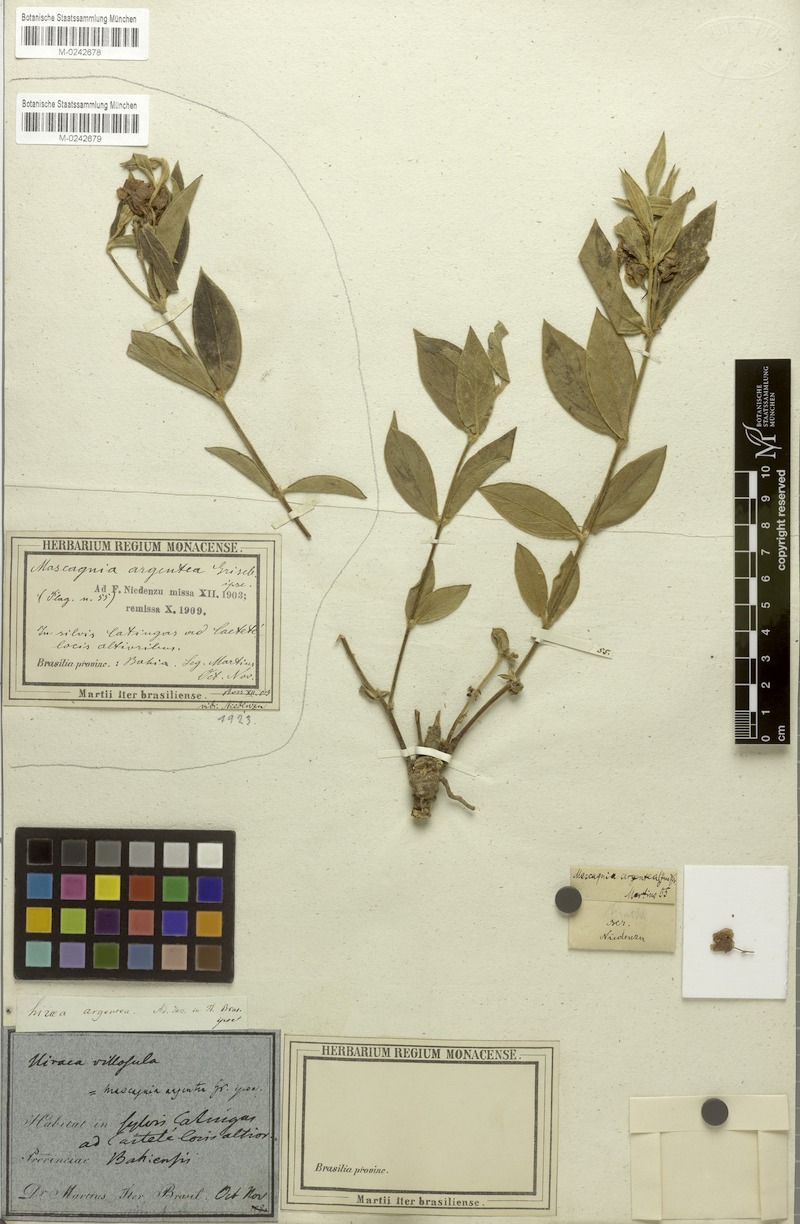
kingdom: Plantae
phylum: Tracheophyta
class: Magnoliopsida
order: Malpighiales
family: Malpighiaceae
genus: Glicophyllum
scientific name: Glicophyllum jussieuanum
